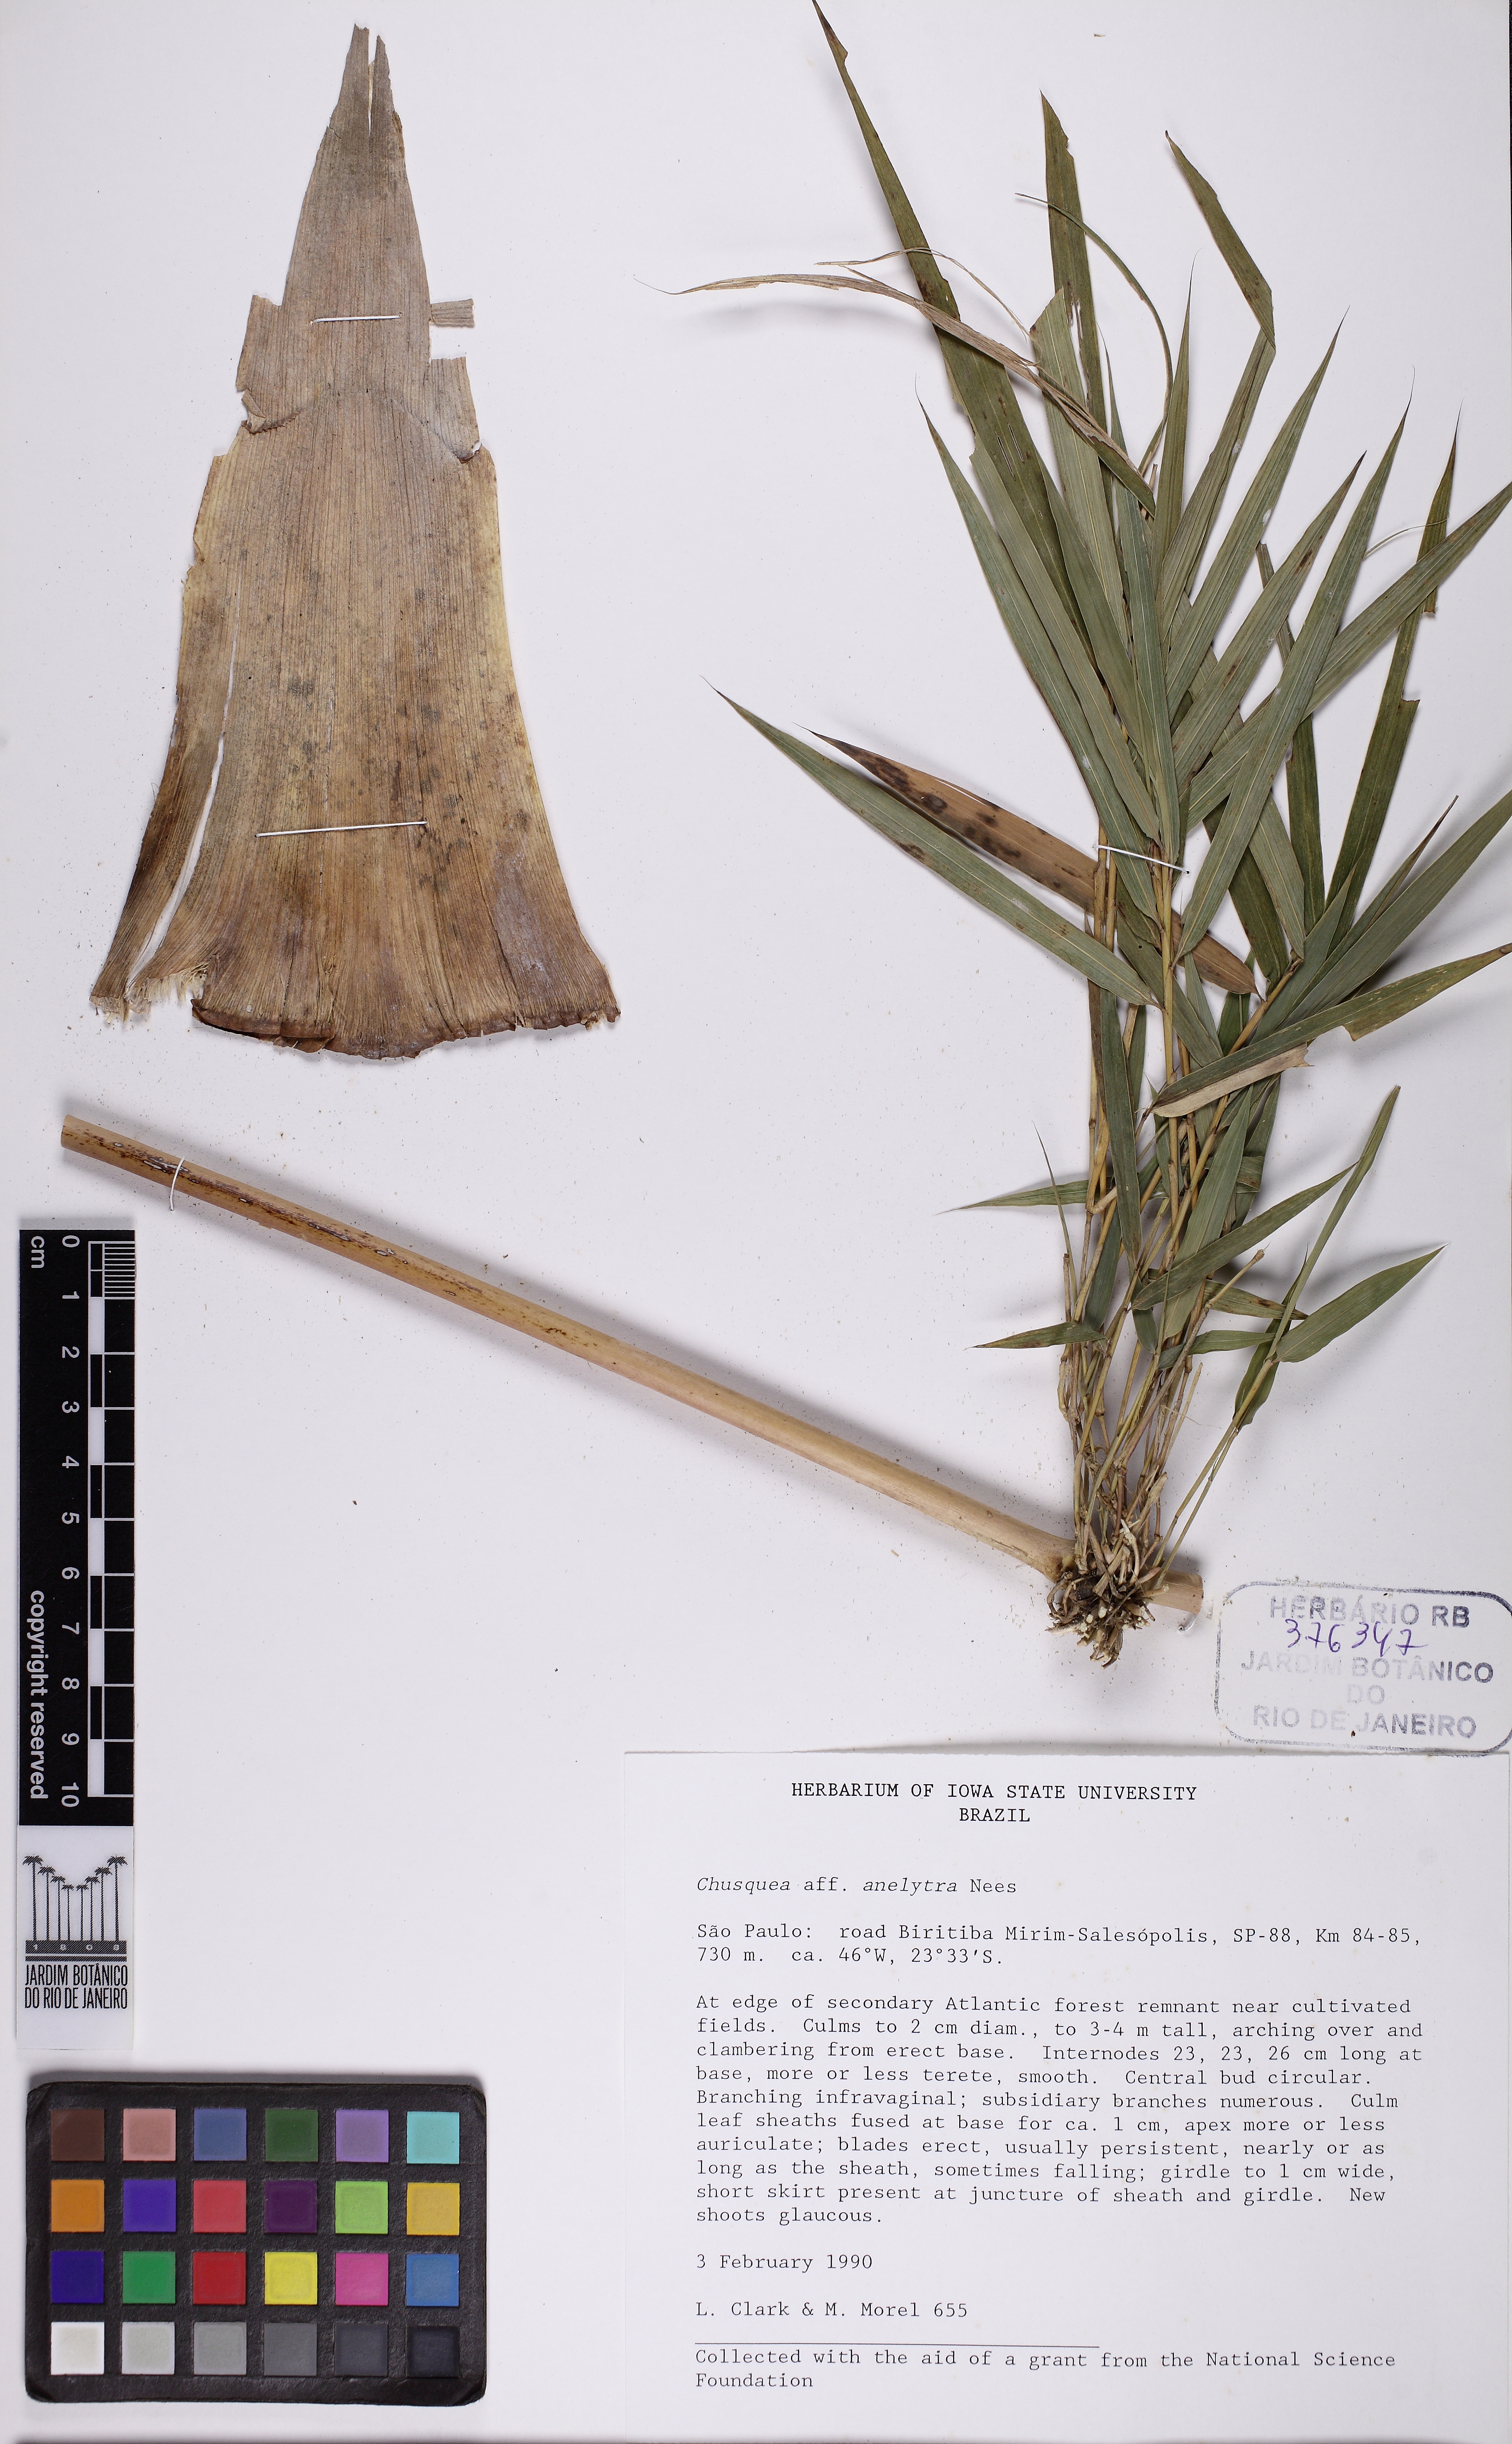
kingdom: Plantae
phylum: Tracheophyta
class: Liliopsida
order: Poales
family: Poaceae
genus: Chusquea
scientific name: Chusquea meyeriana
